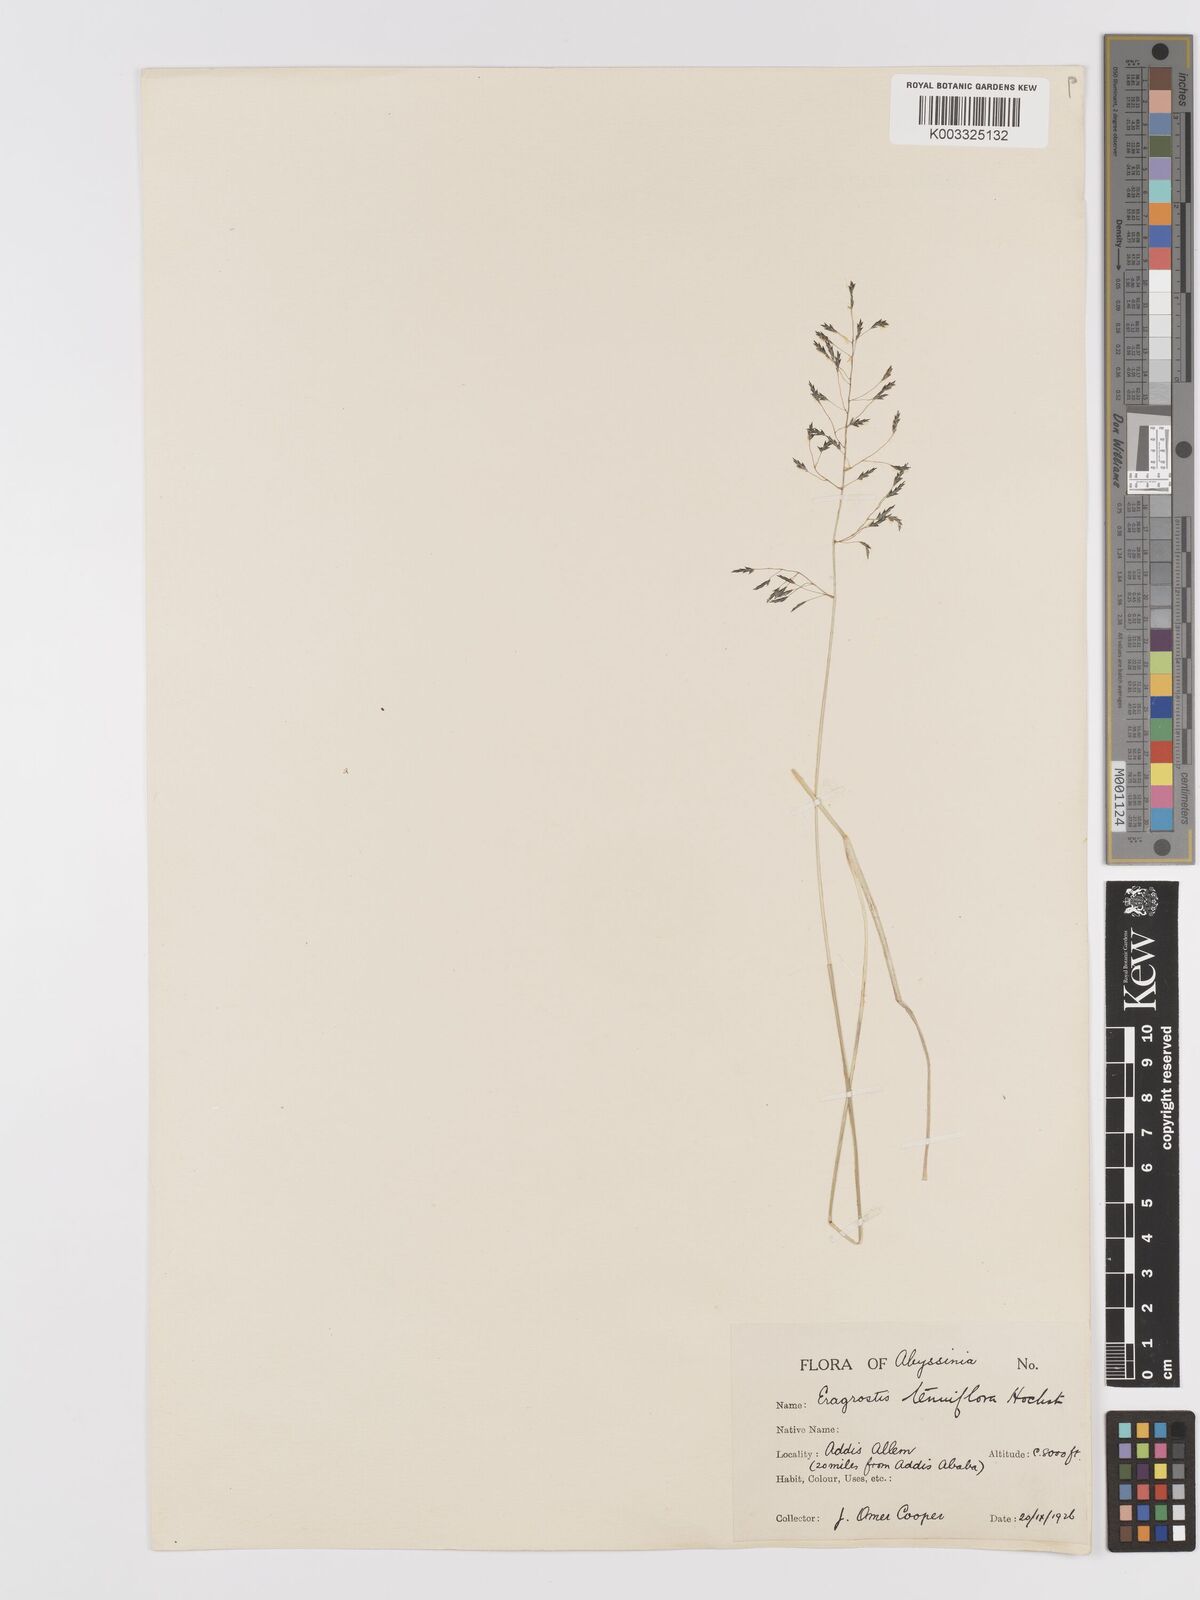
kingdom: Plantae
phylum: Tracheophyta
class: Liliopsida
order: Poales
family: Poaceae
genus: Eragrostis
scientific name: Eragrostis tenuifolia
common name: Elastic grass
